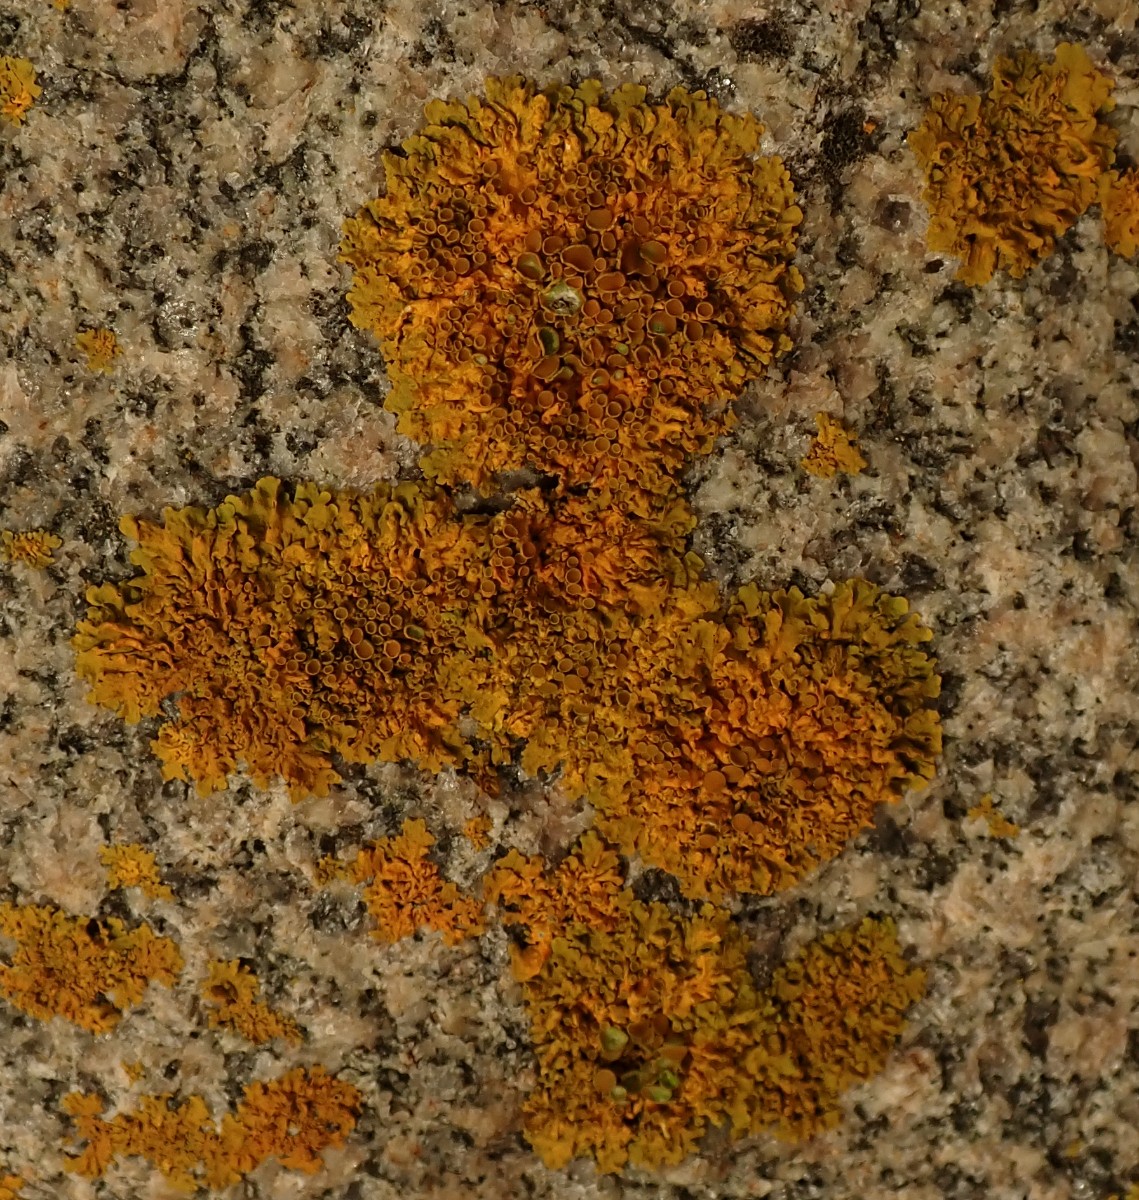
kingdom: Fungi
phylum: Ascomycota
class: Lecanoromycetes
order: Teloschistales
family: Teloschistaceae
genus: Xanthoria
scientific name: Xanthoria parietina
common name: almindelig væggelav
